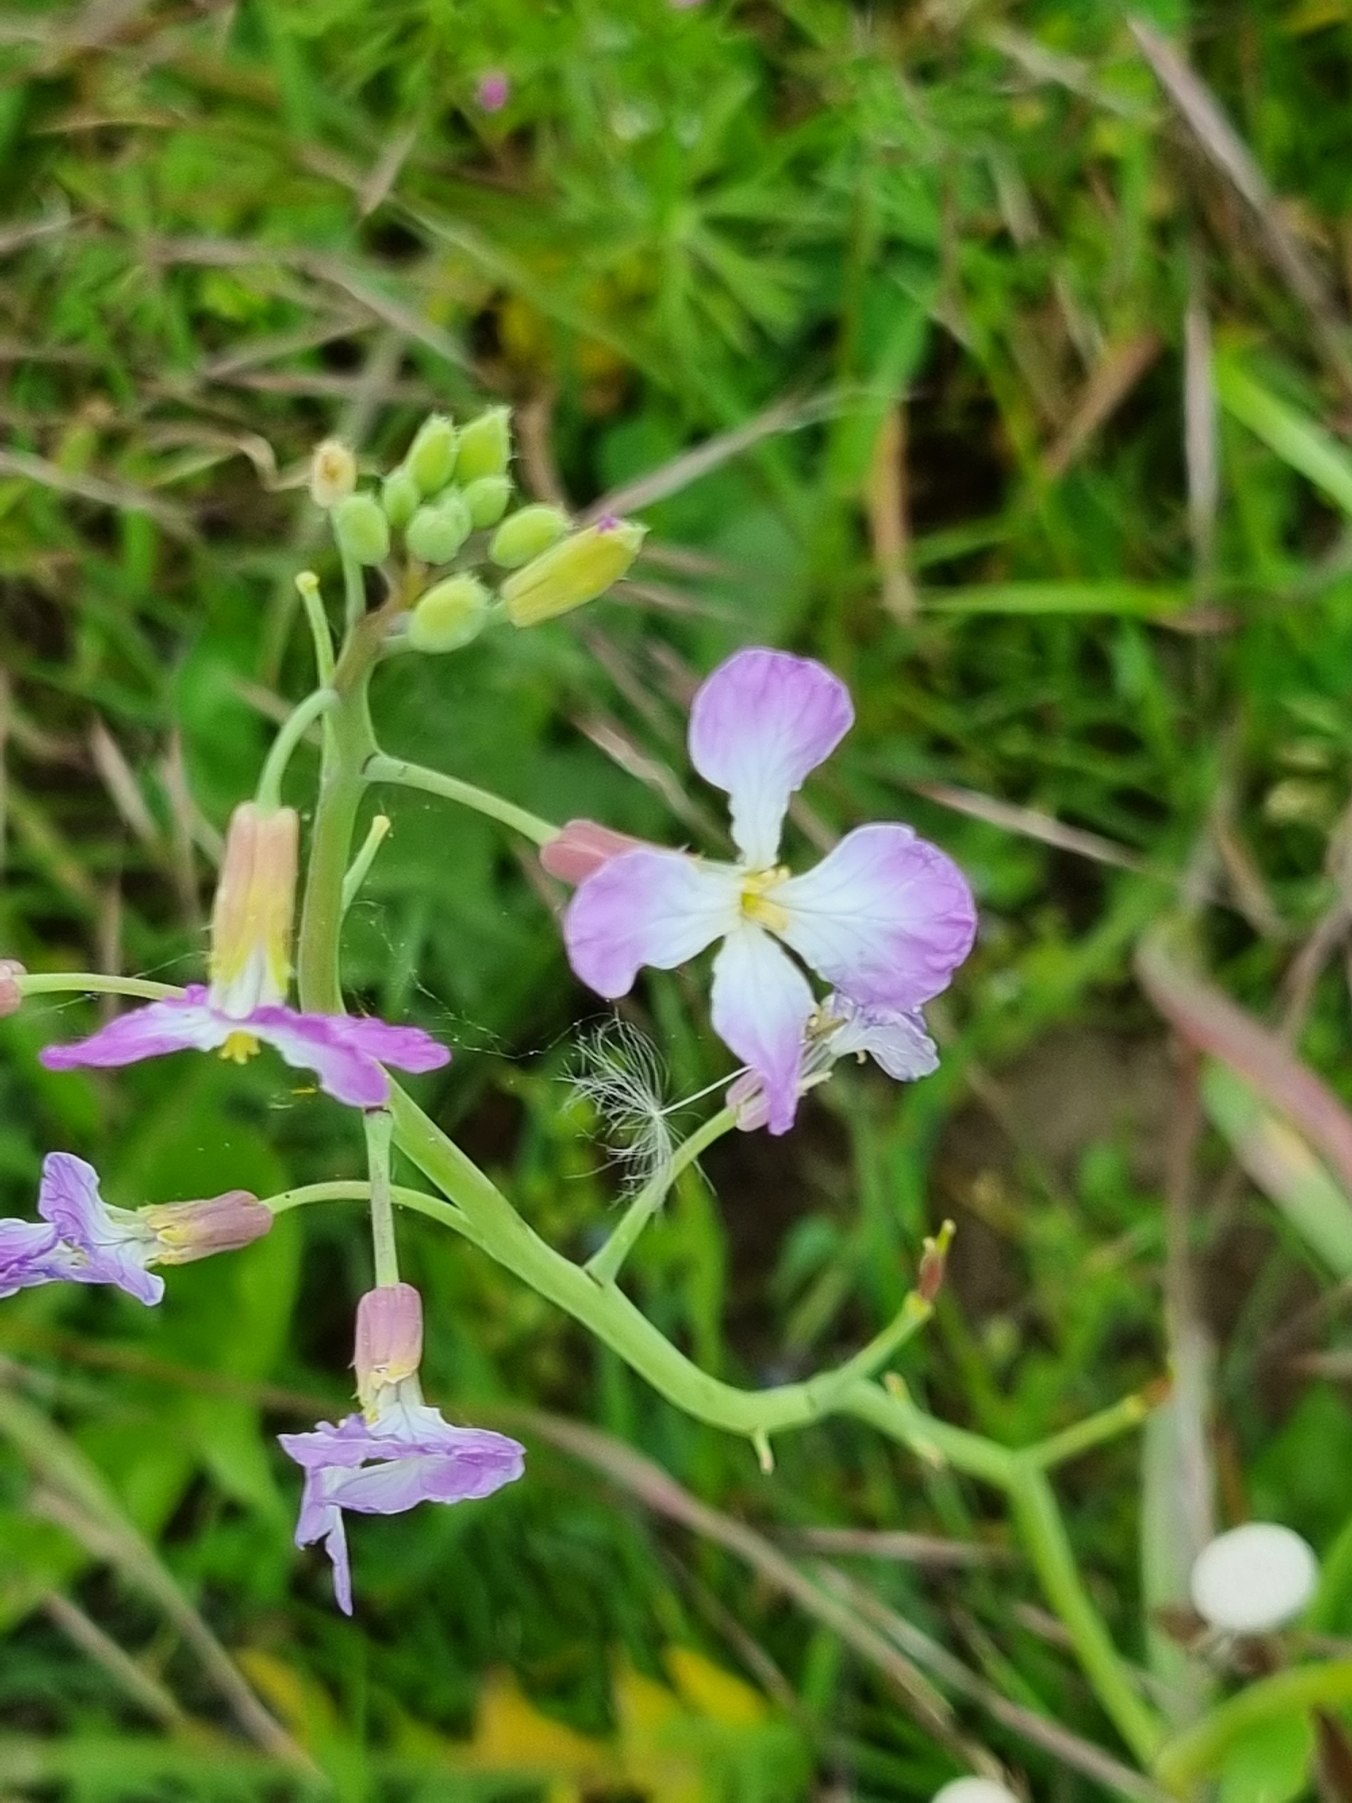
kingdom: Plantae
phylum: Tracheophyta
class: Magnoliopsida
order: Brassicales
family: Brassicaceae
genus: Raphanus
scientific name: Raphanus sativus
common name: Olie-ræddike
